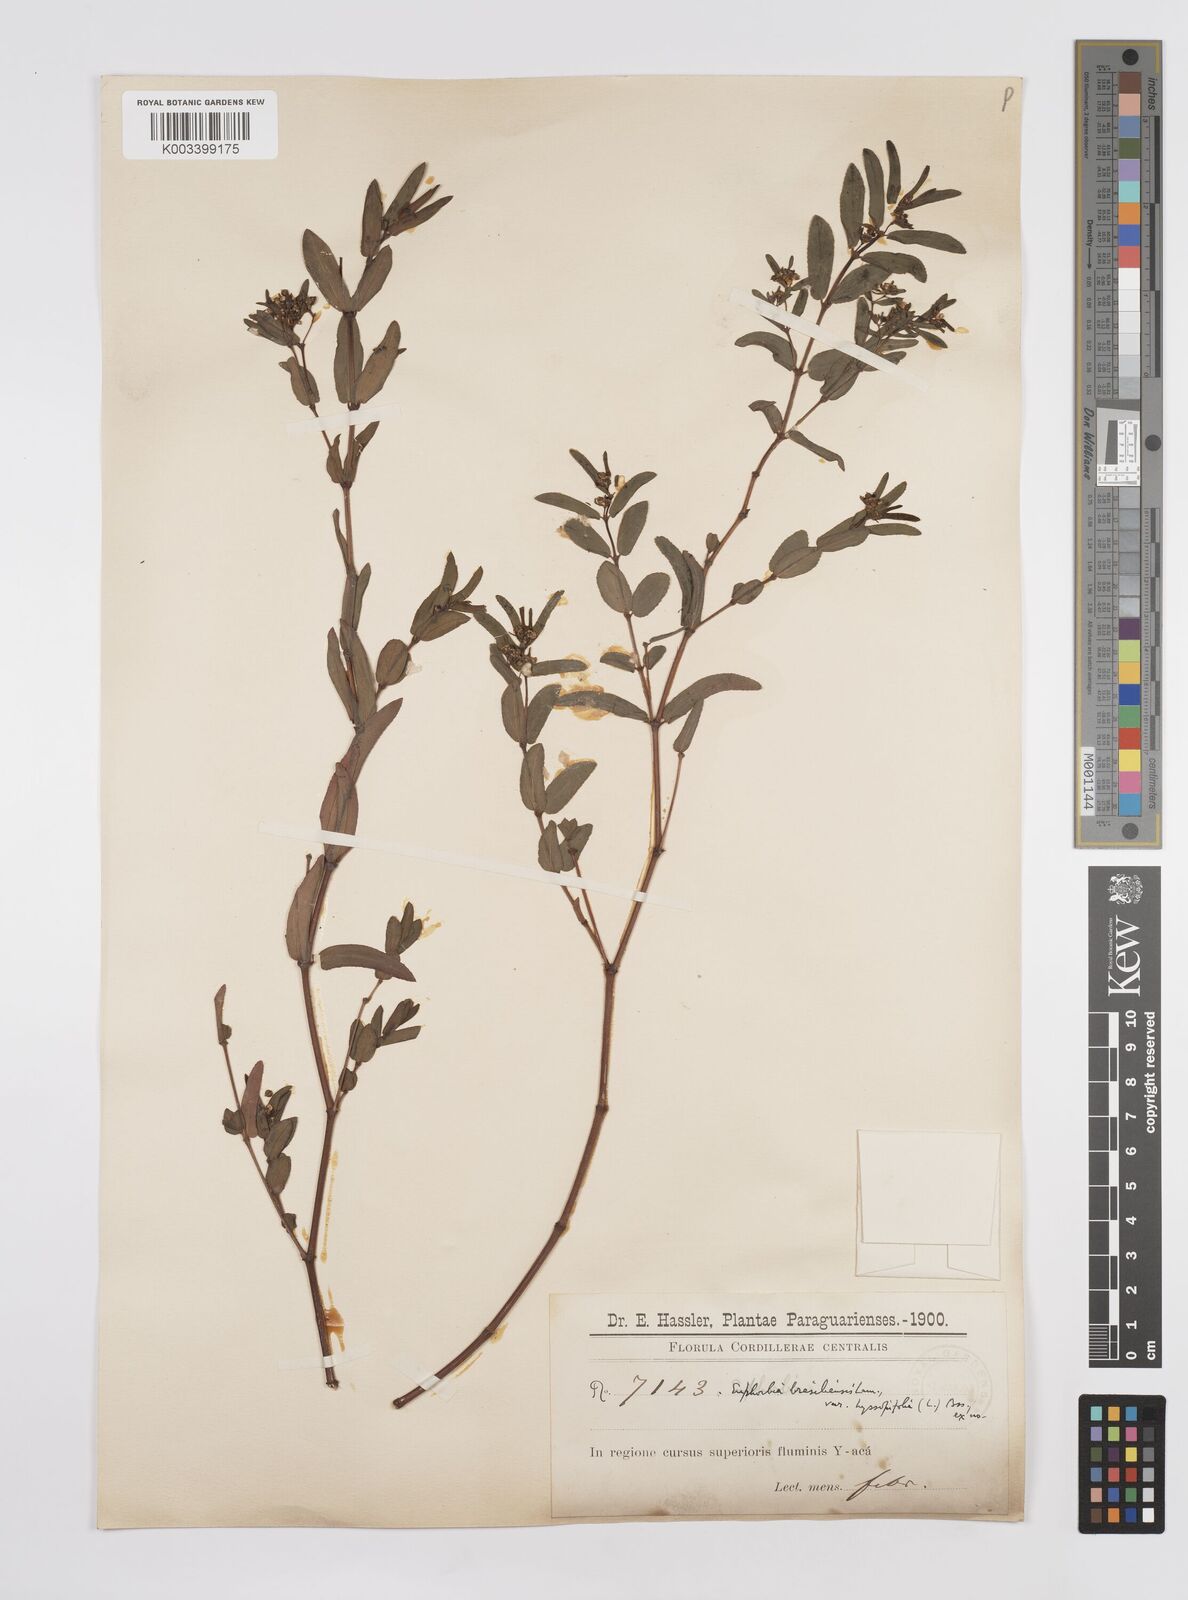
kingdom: Plantae
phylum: Tracheophyta
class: Magnoliopsida
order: Malpighiales
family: Euphorbiaceae
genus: Euphorbia
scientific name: Euphorbia hyssopifolia
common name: Hyssopleaf sandmat
